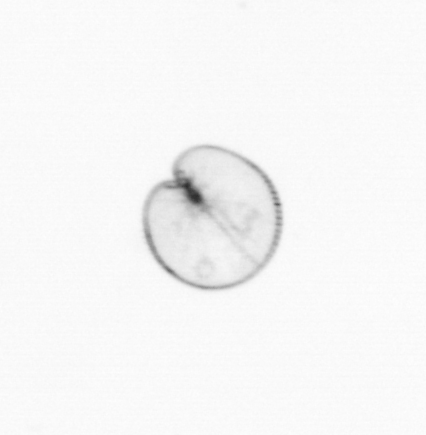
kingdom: Chromista
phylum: Myzozoa
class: Dinophyceae
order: Noctilucales
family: Noctilucaceae
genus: Noctiluca
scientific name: Noctiluca scintillans
